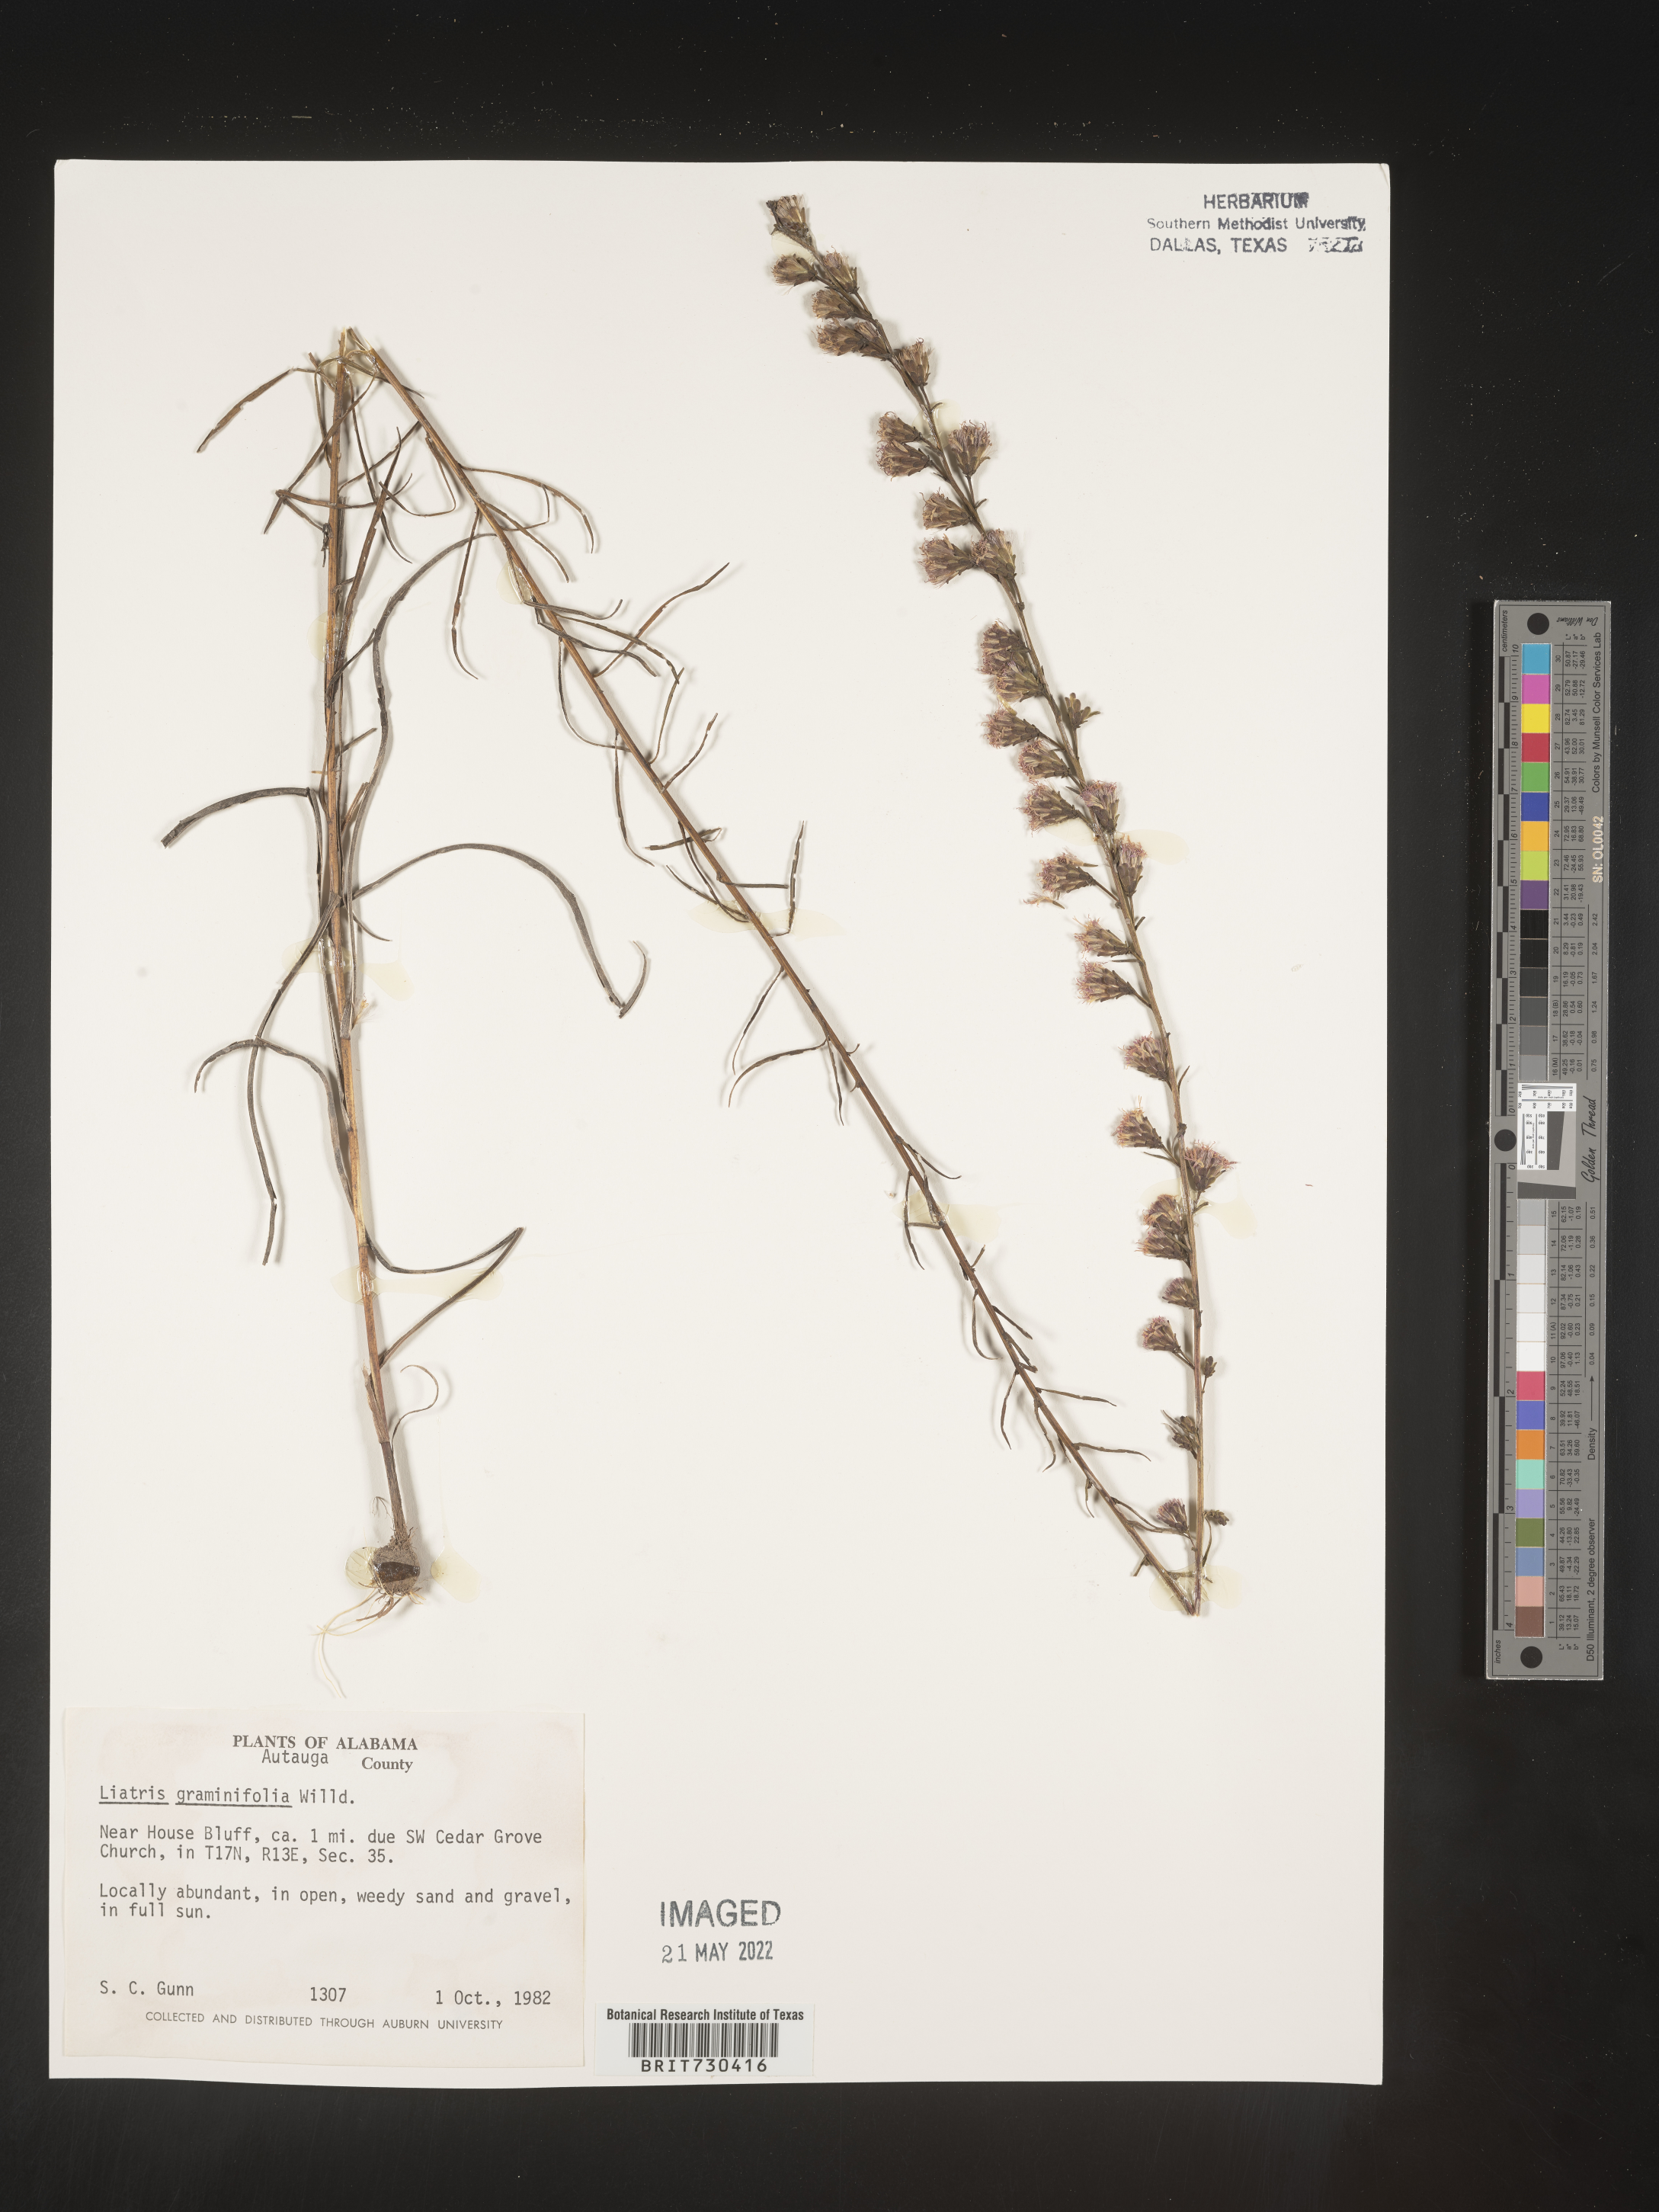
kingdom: Plantae
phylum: Tracheophyta
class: Magnoliopsida
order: Asterales
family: Asteraceae
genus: Liatris
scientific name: Liatris elegantula
